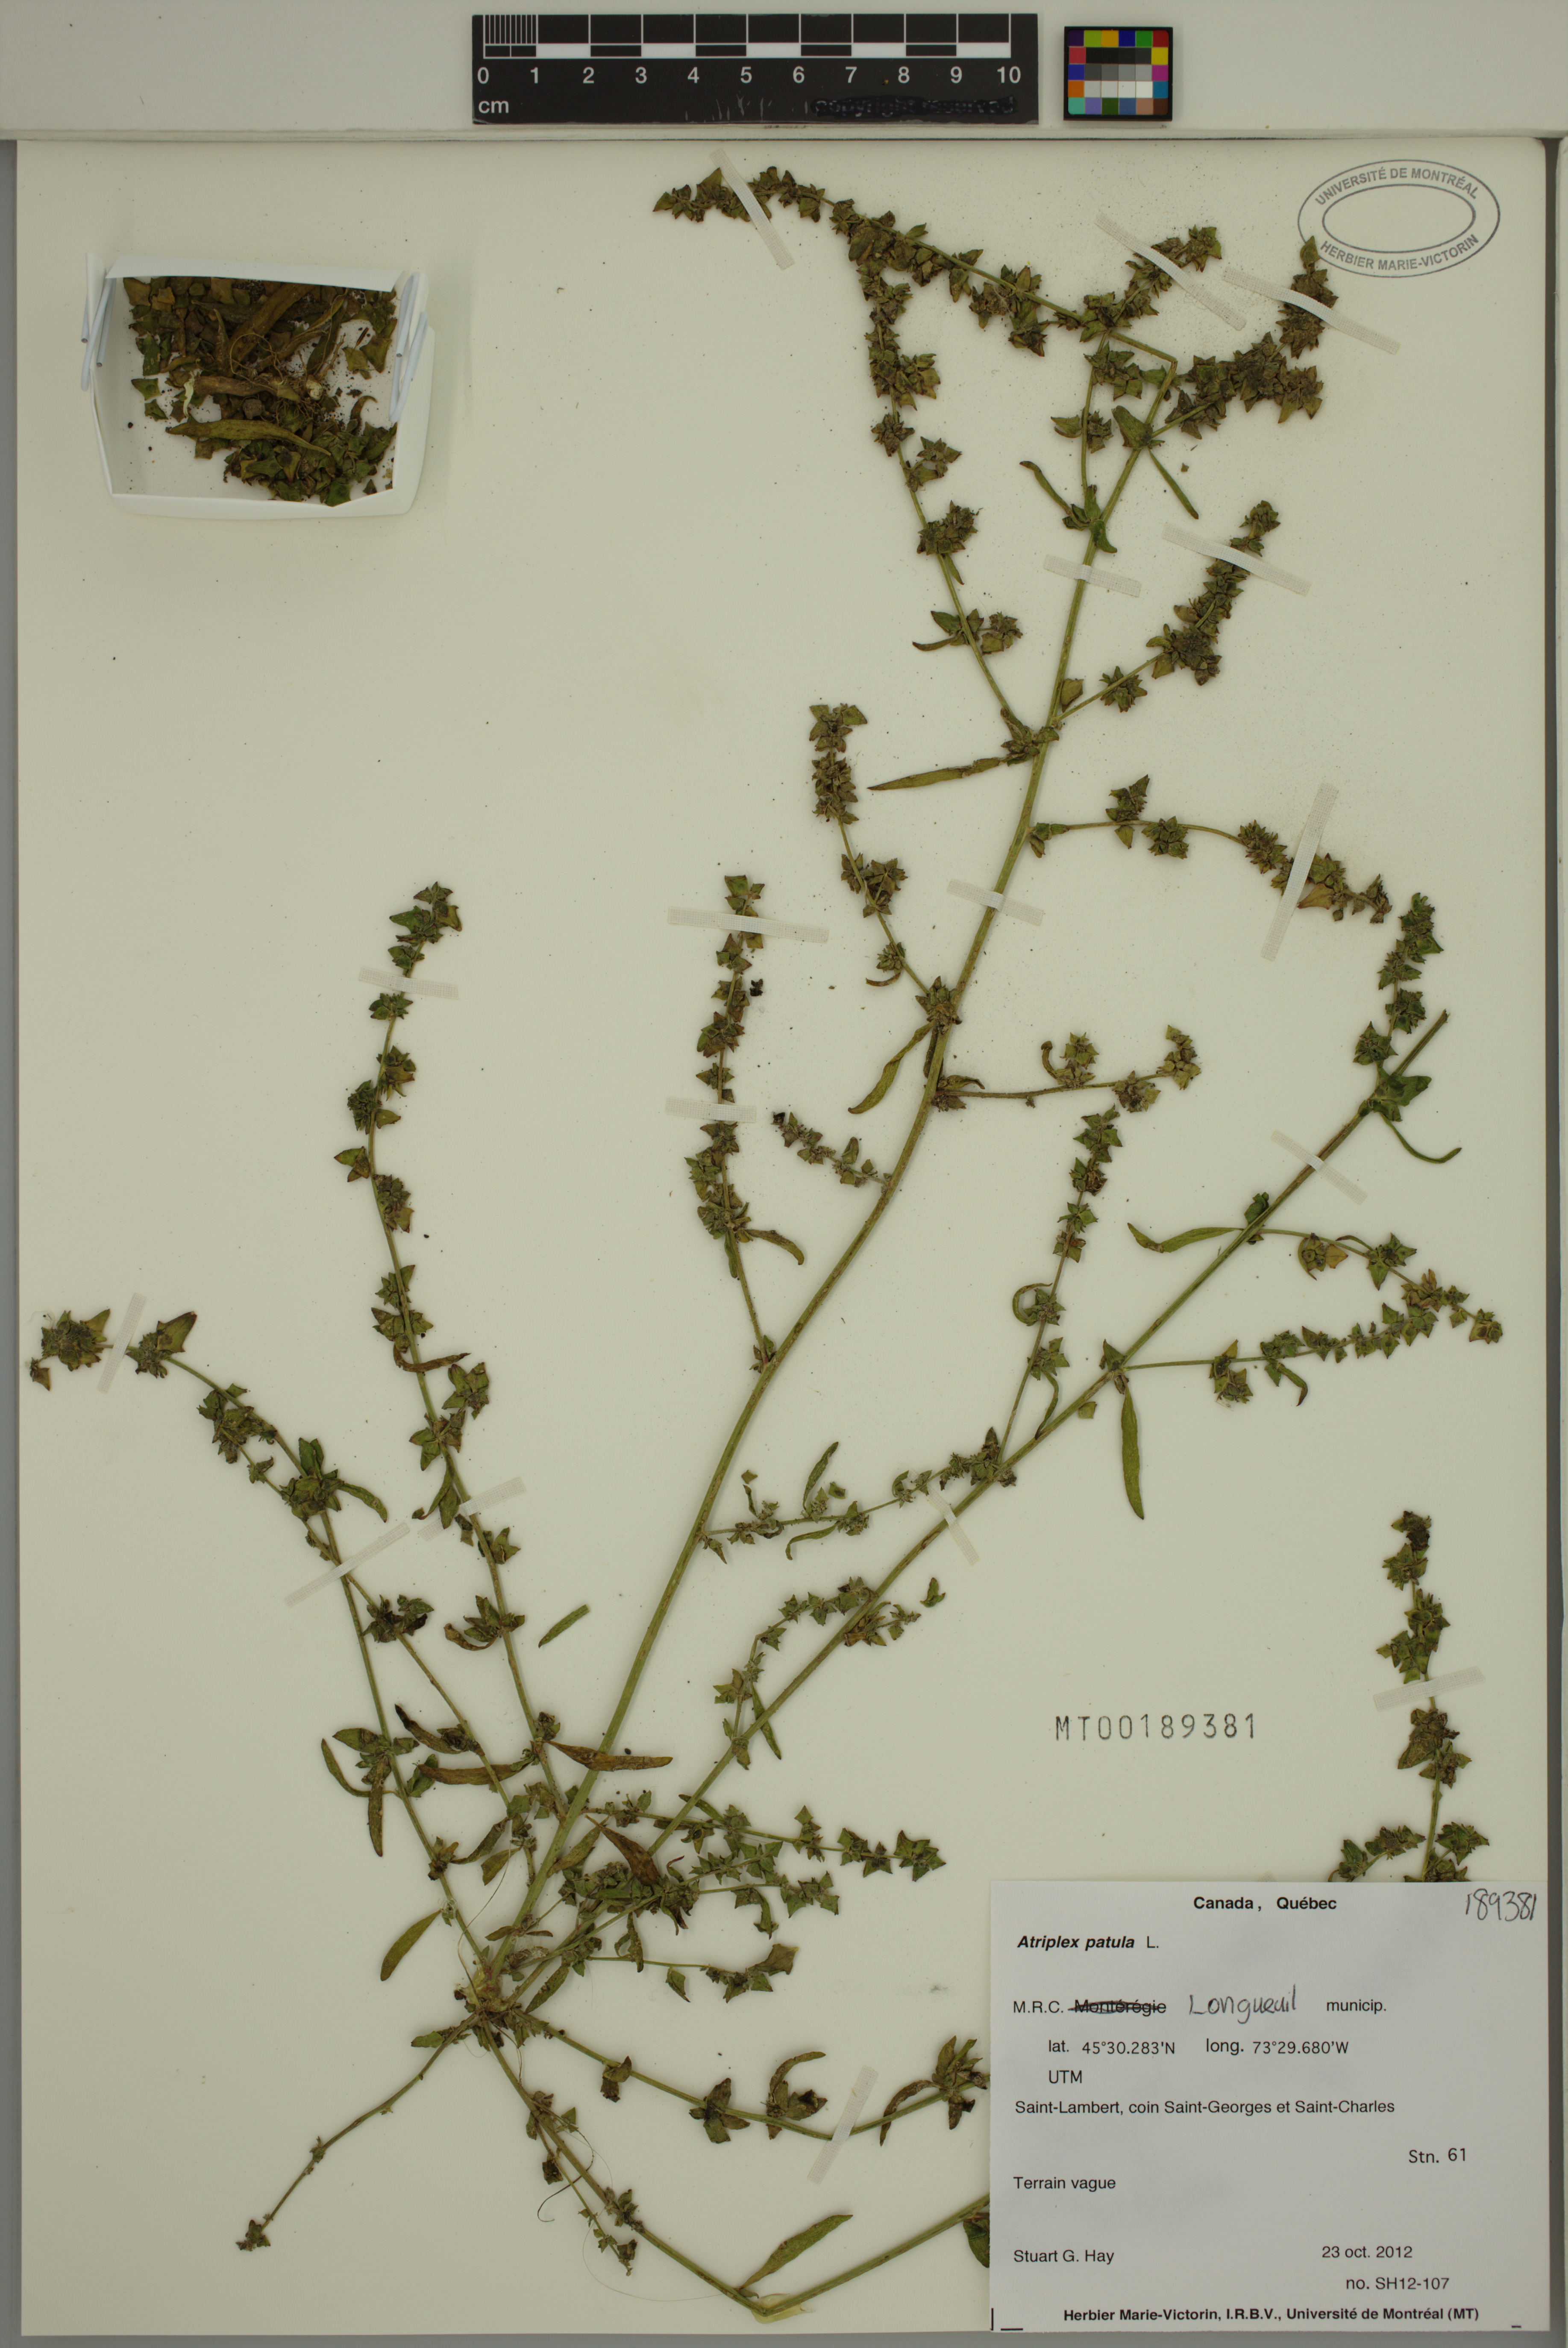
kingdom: Plantae
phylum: Tracheophyta
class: Magnoliopsida
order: Caryophyllales
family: Amaranthaceae
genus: Atriplex
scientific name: Atriplex patula
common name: Common orache
